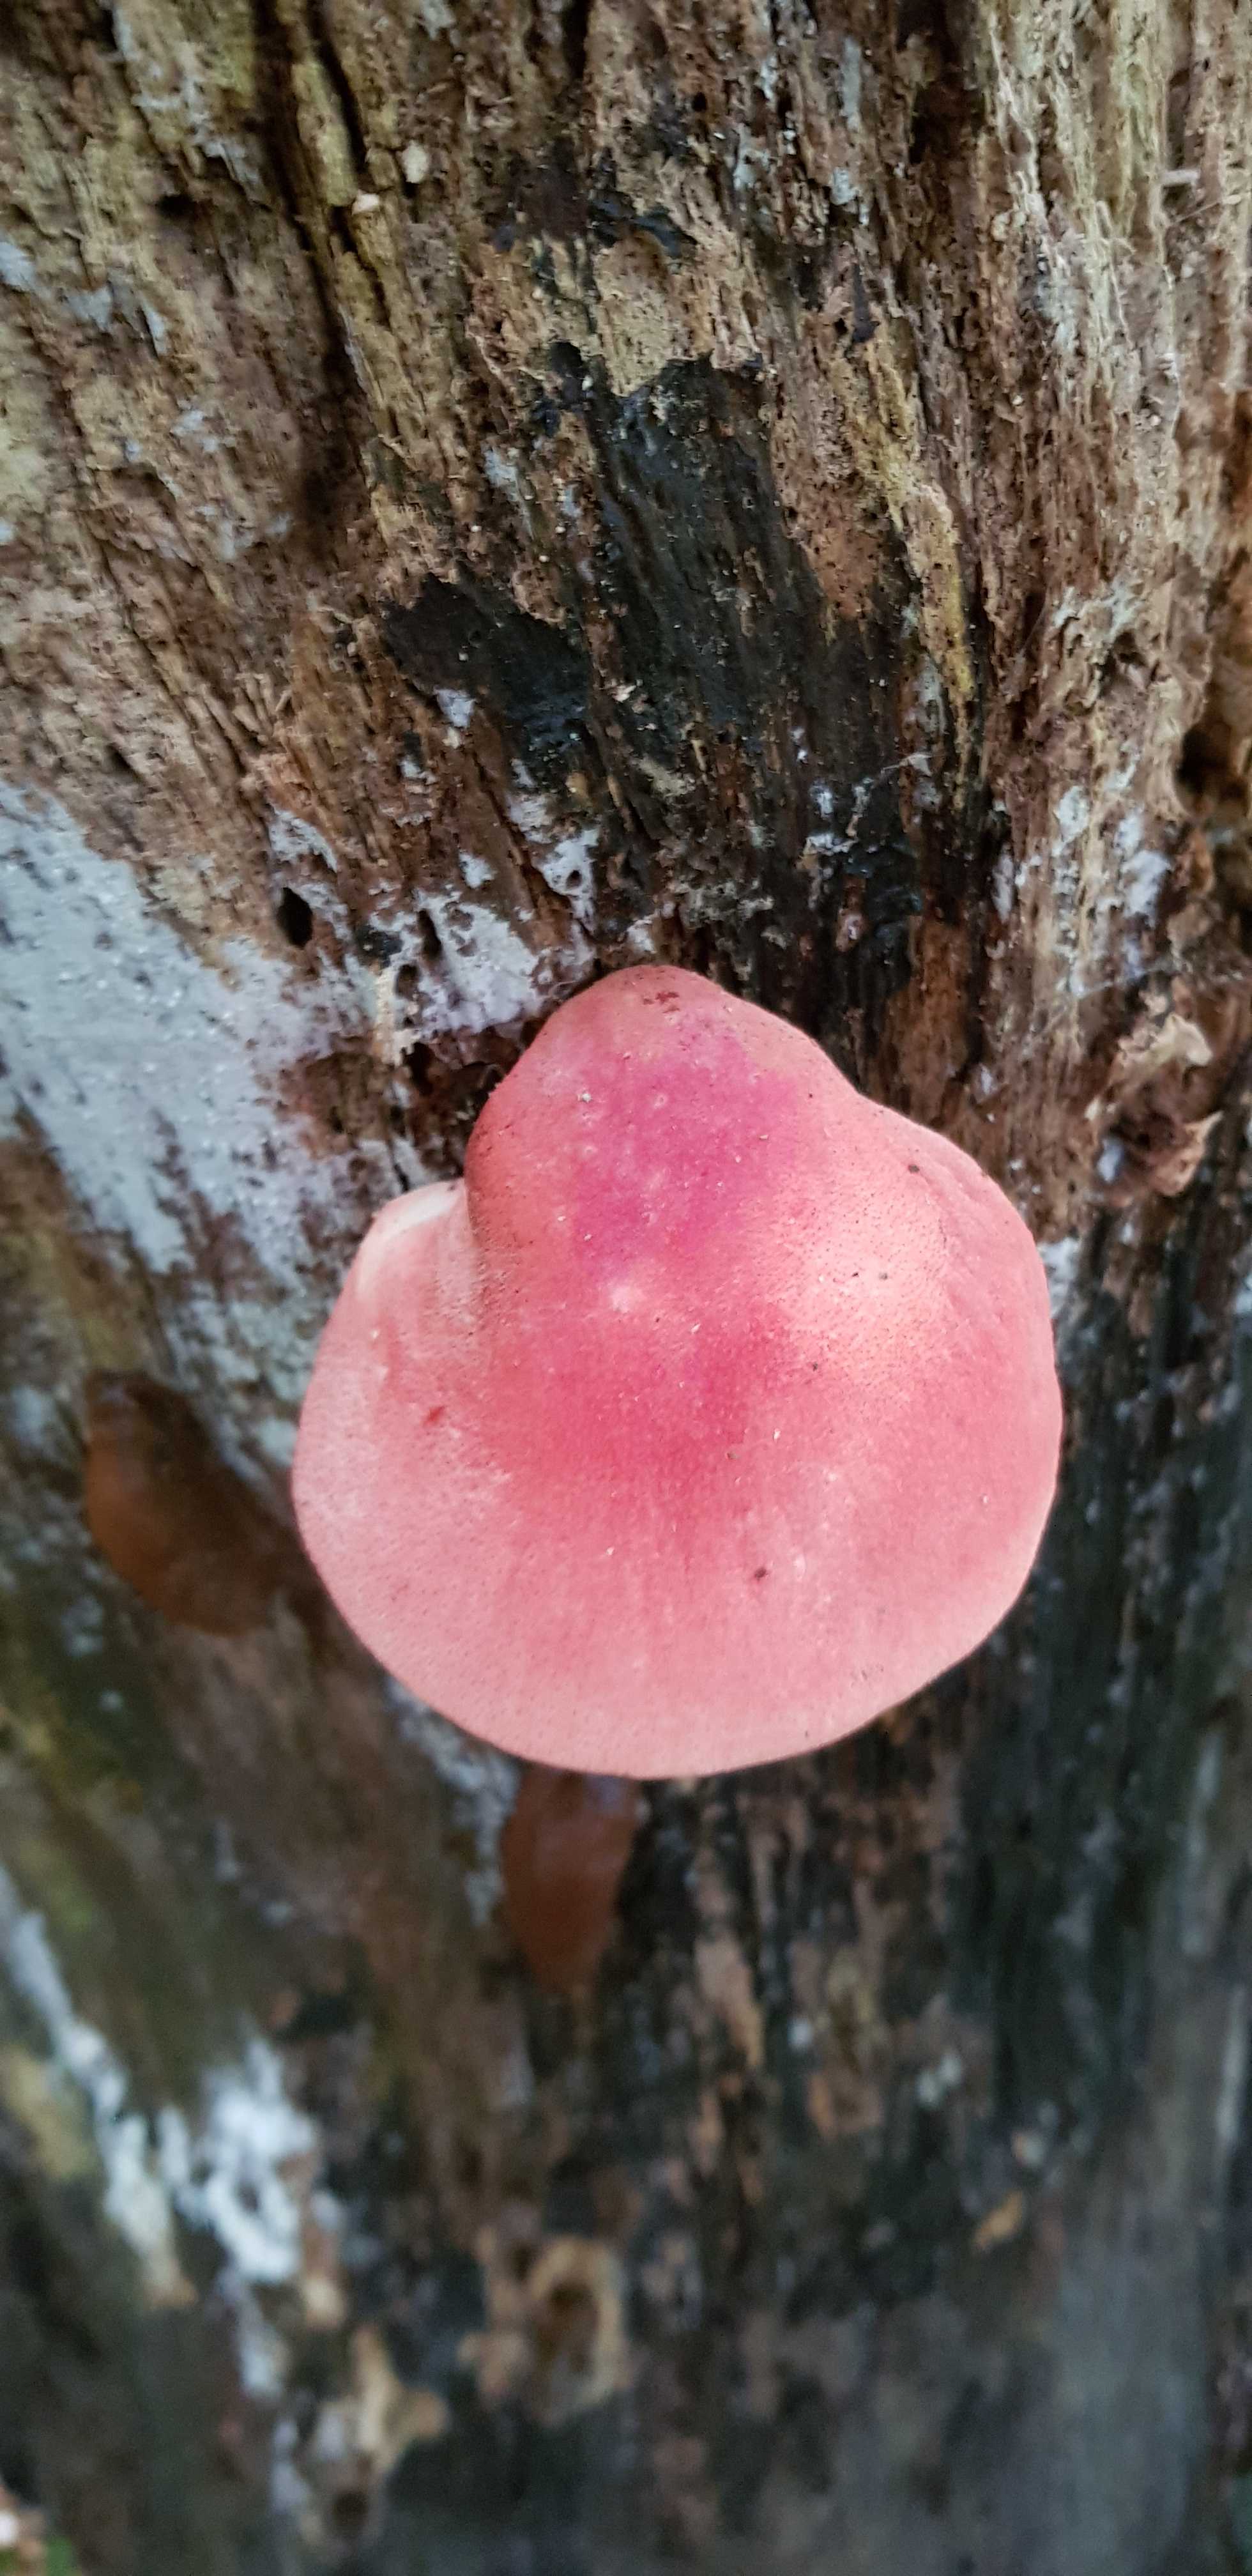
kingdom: Fungi
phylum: Basidiomycota
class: Agaricomycetes
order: Agaricales
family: Fistulinaceae
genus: Fistulina
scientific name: Fistulina hepatica
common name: oksetunge
